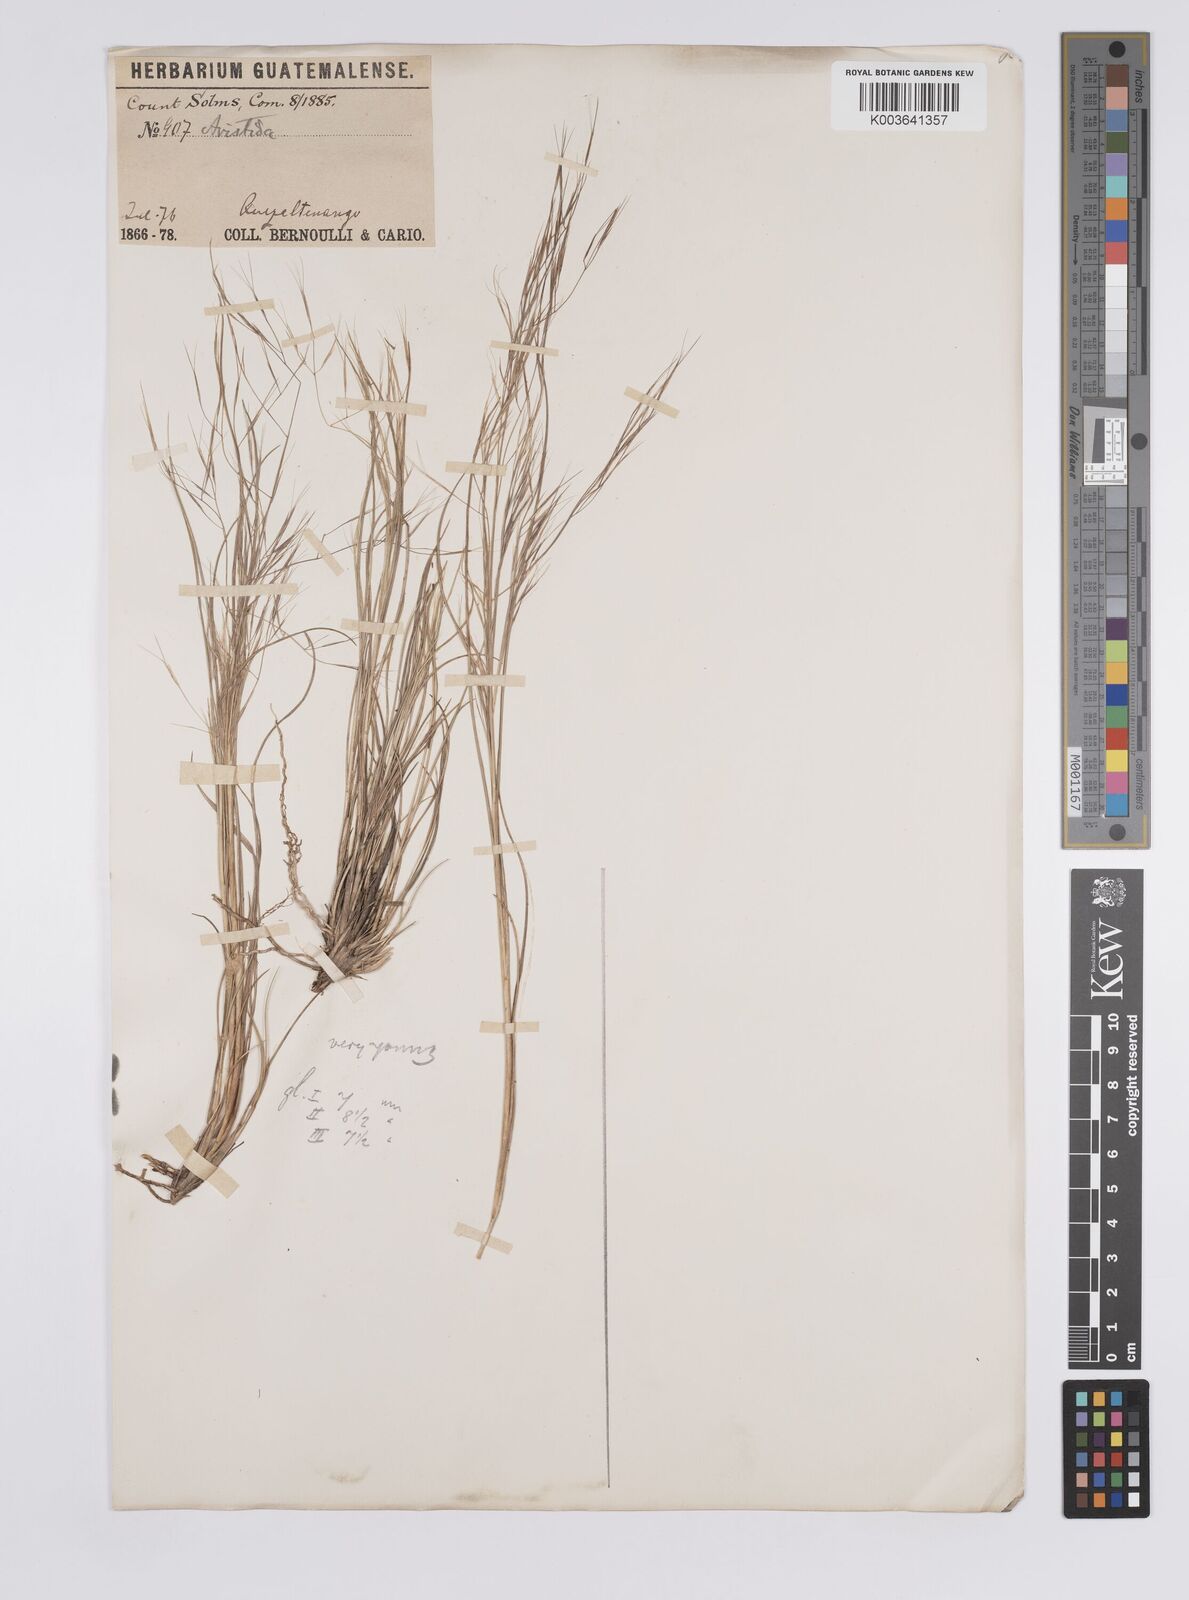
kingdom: Plantae
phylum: Tracheophyta
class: Liliopsida
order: Poales
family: Poaceae
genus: Aristida
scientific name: Aristida divaricata
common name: Poverty grass
